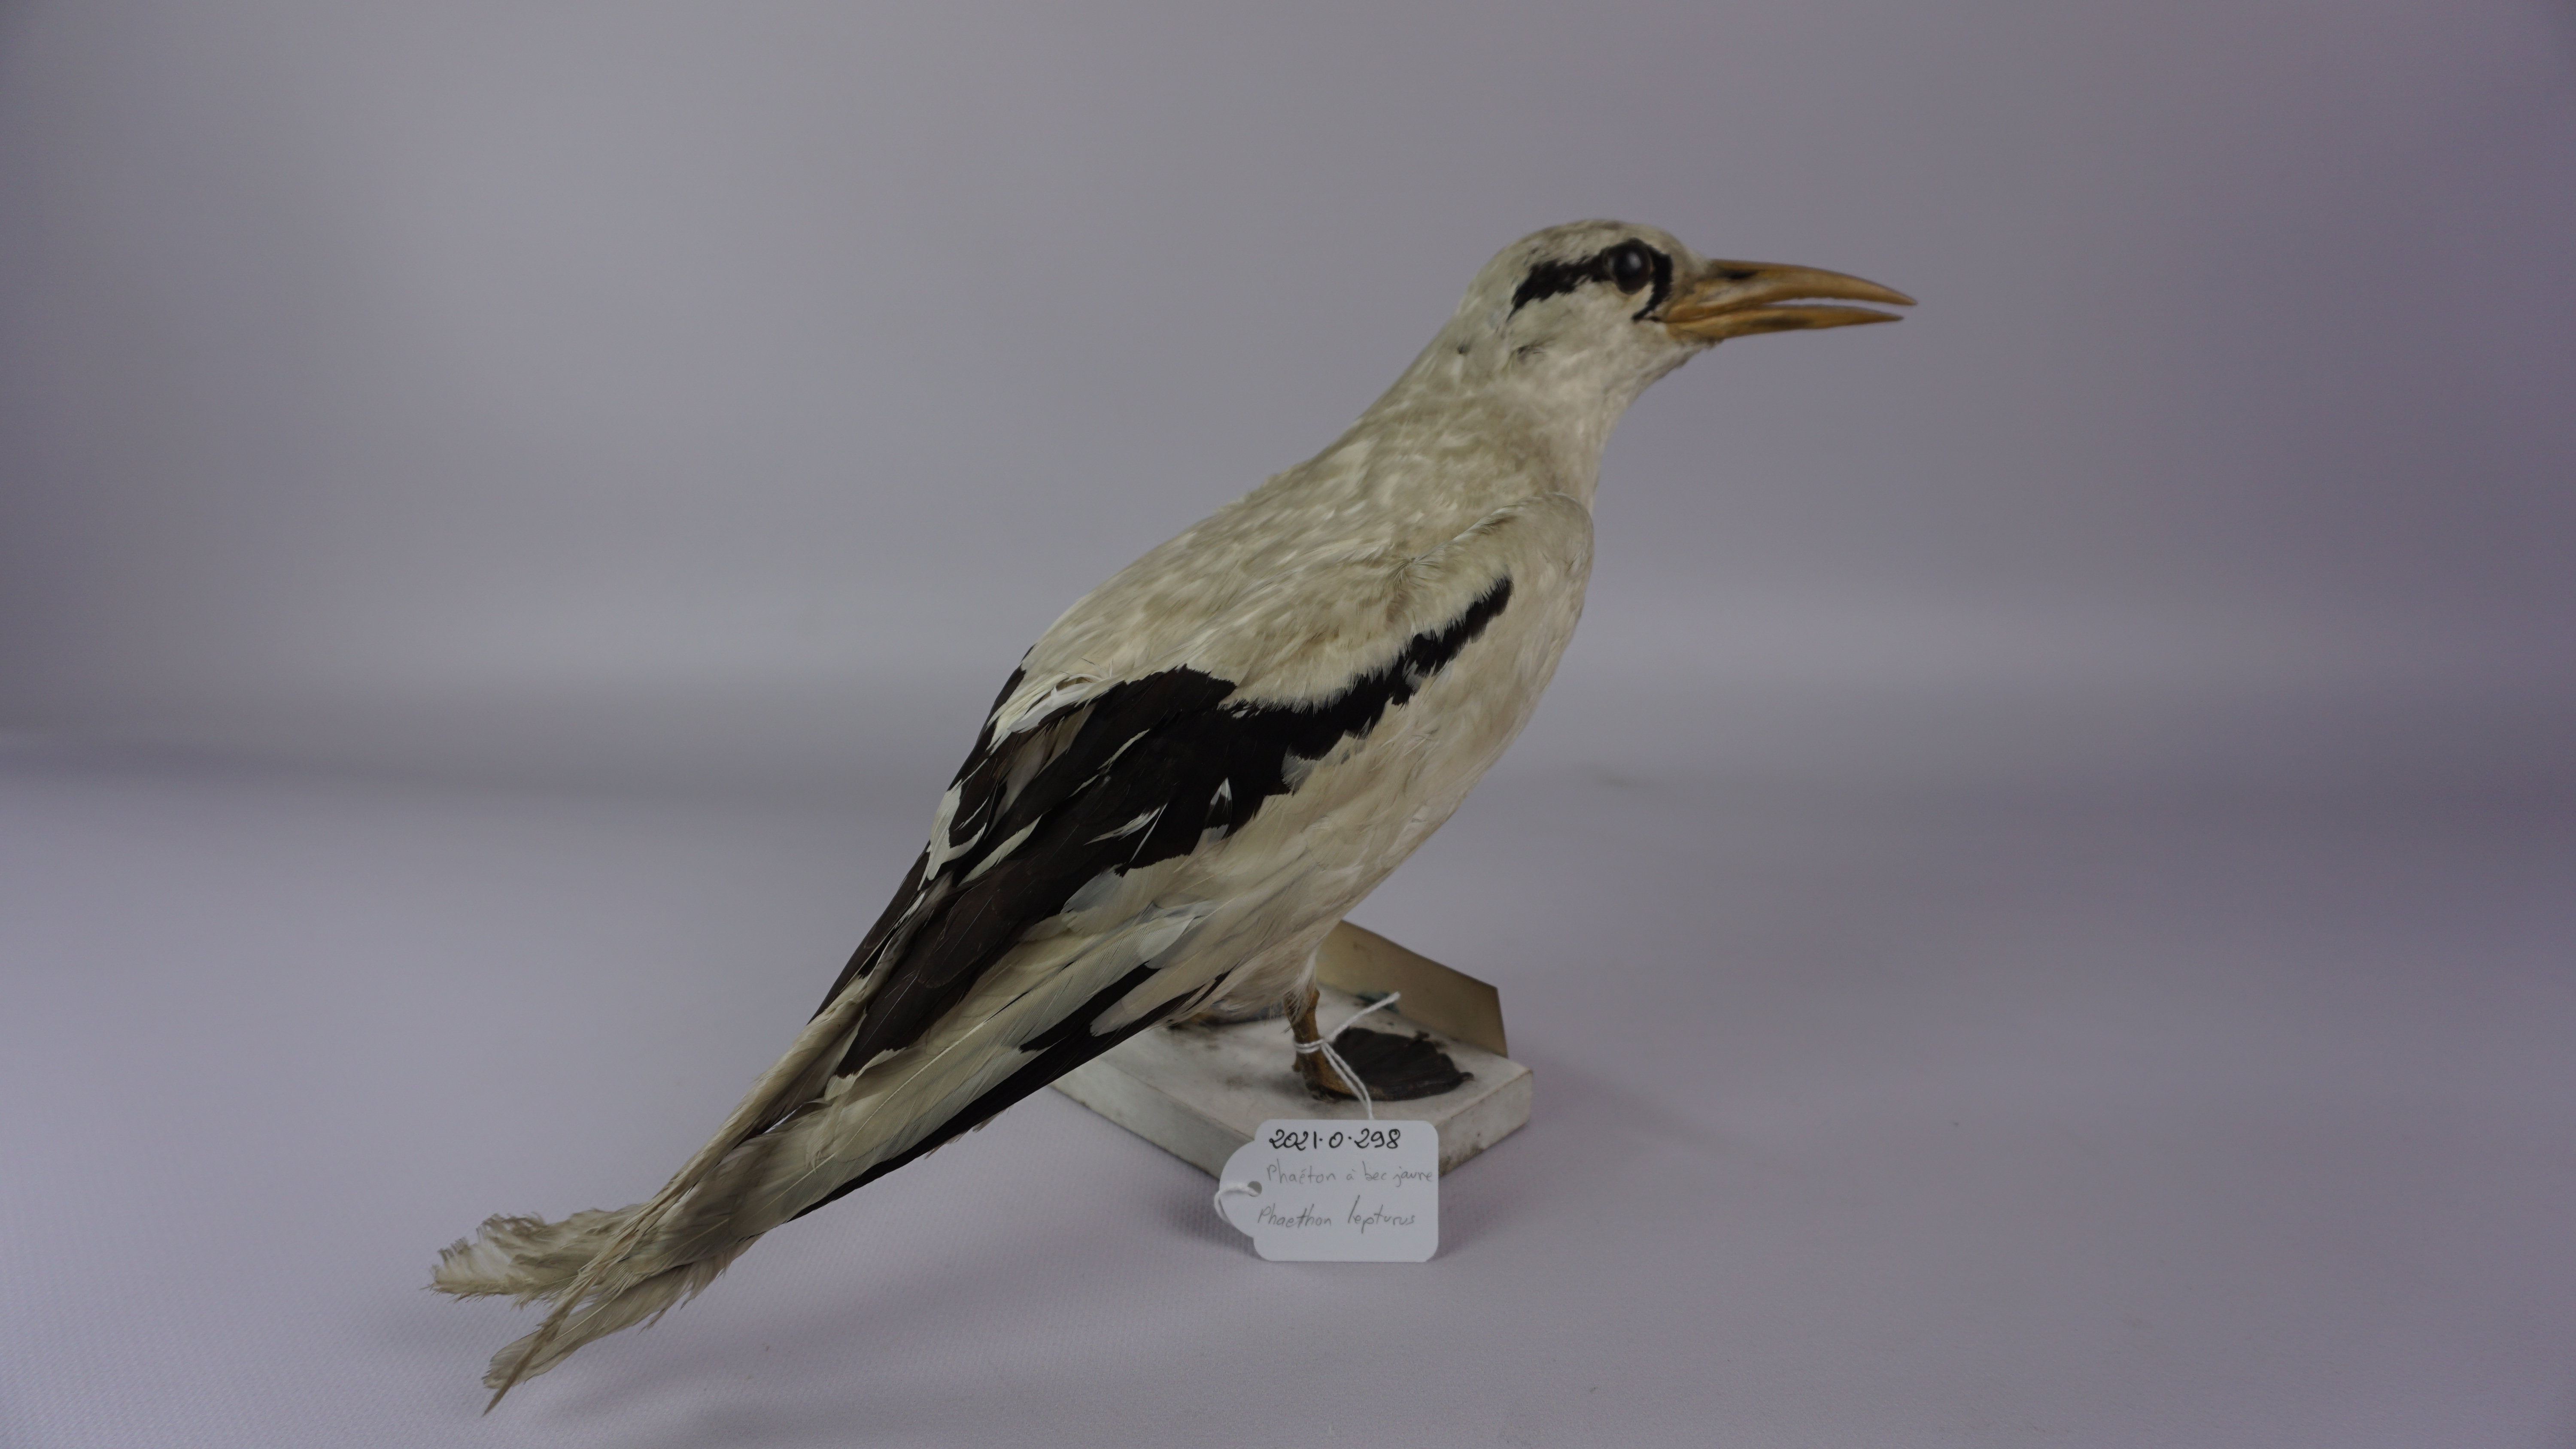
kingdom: Animalia
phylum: Chordata
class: Aves
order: Phaethontiformes
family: Phaethontidae
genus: Phaethon
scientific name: Phaethon lepturus
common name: White-tailed tropicbird
